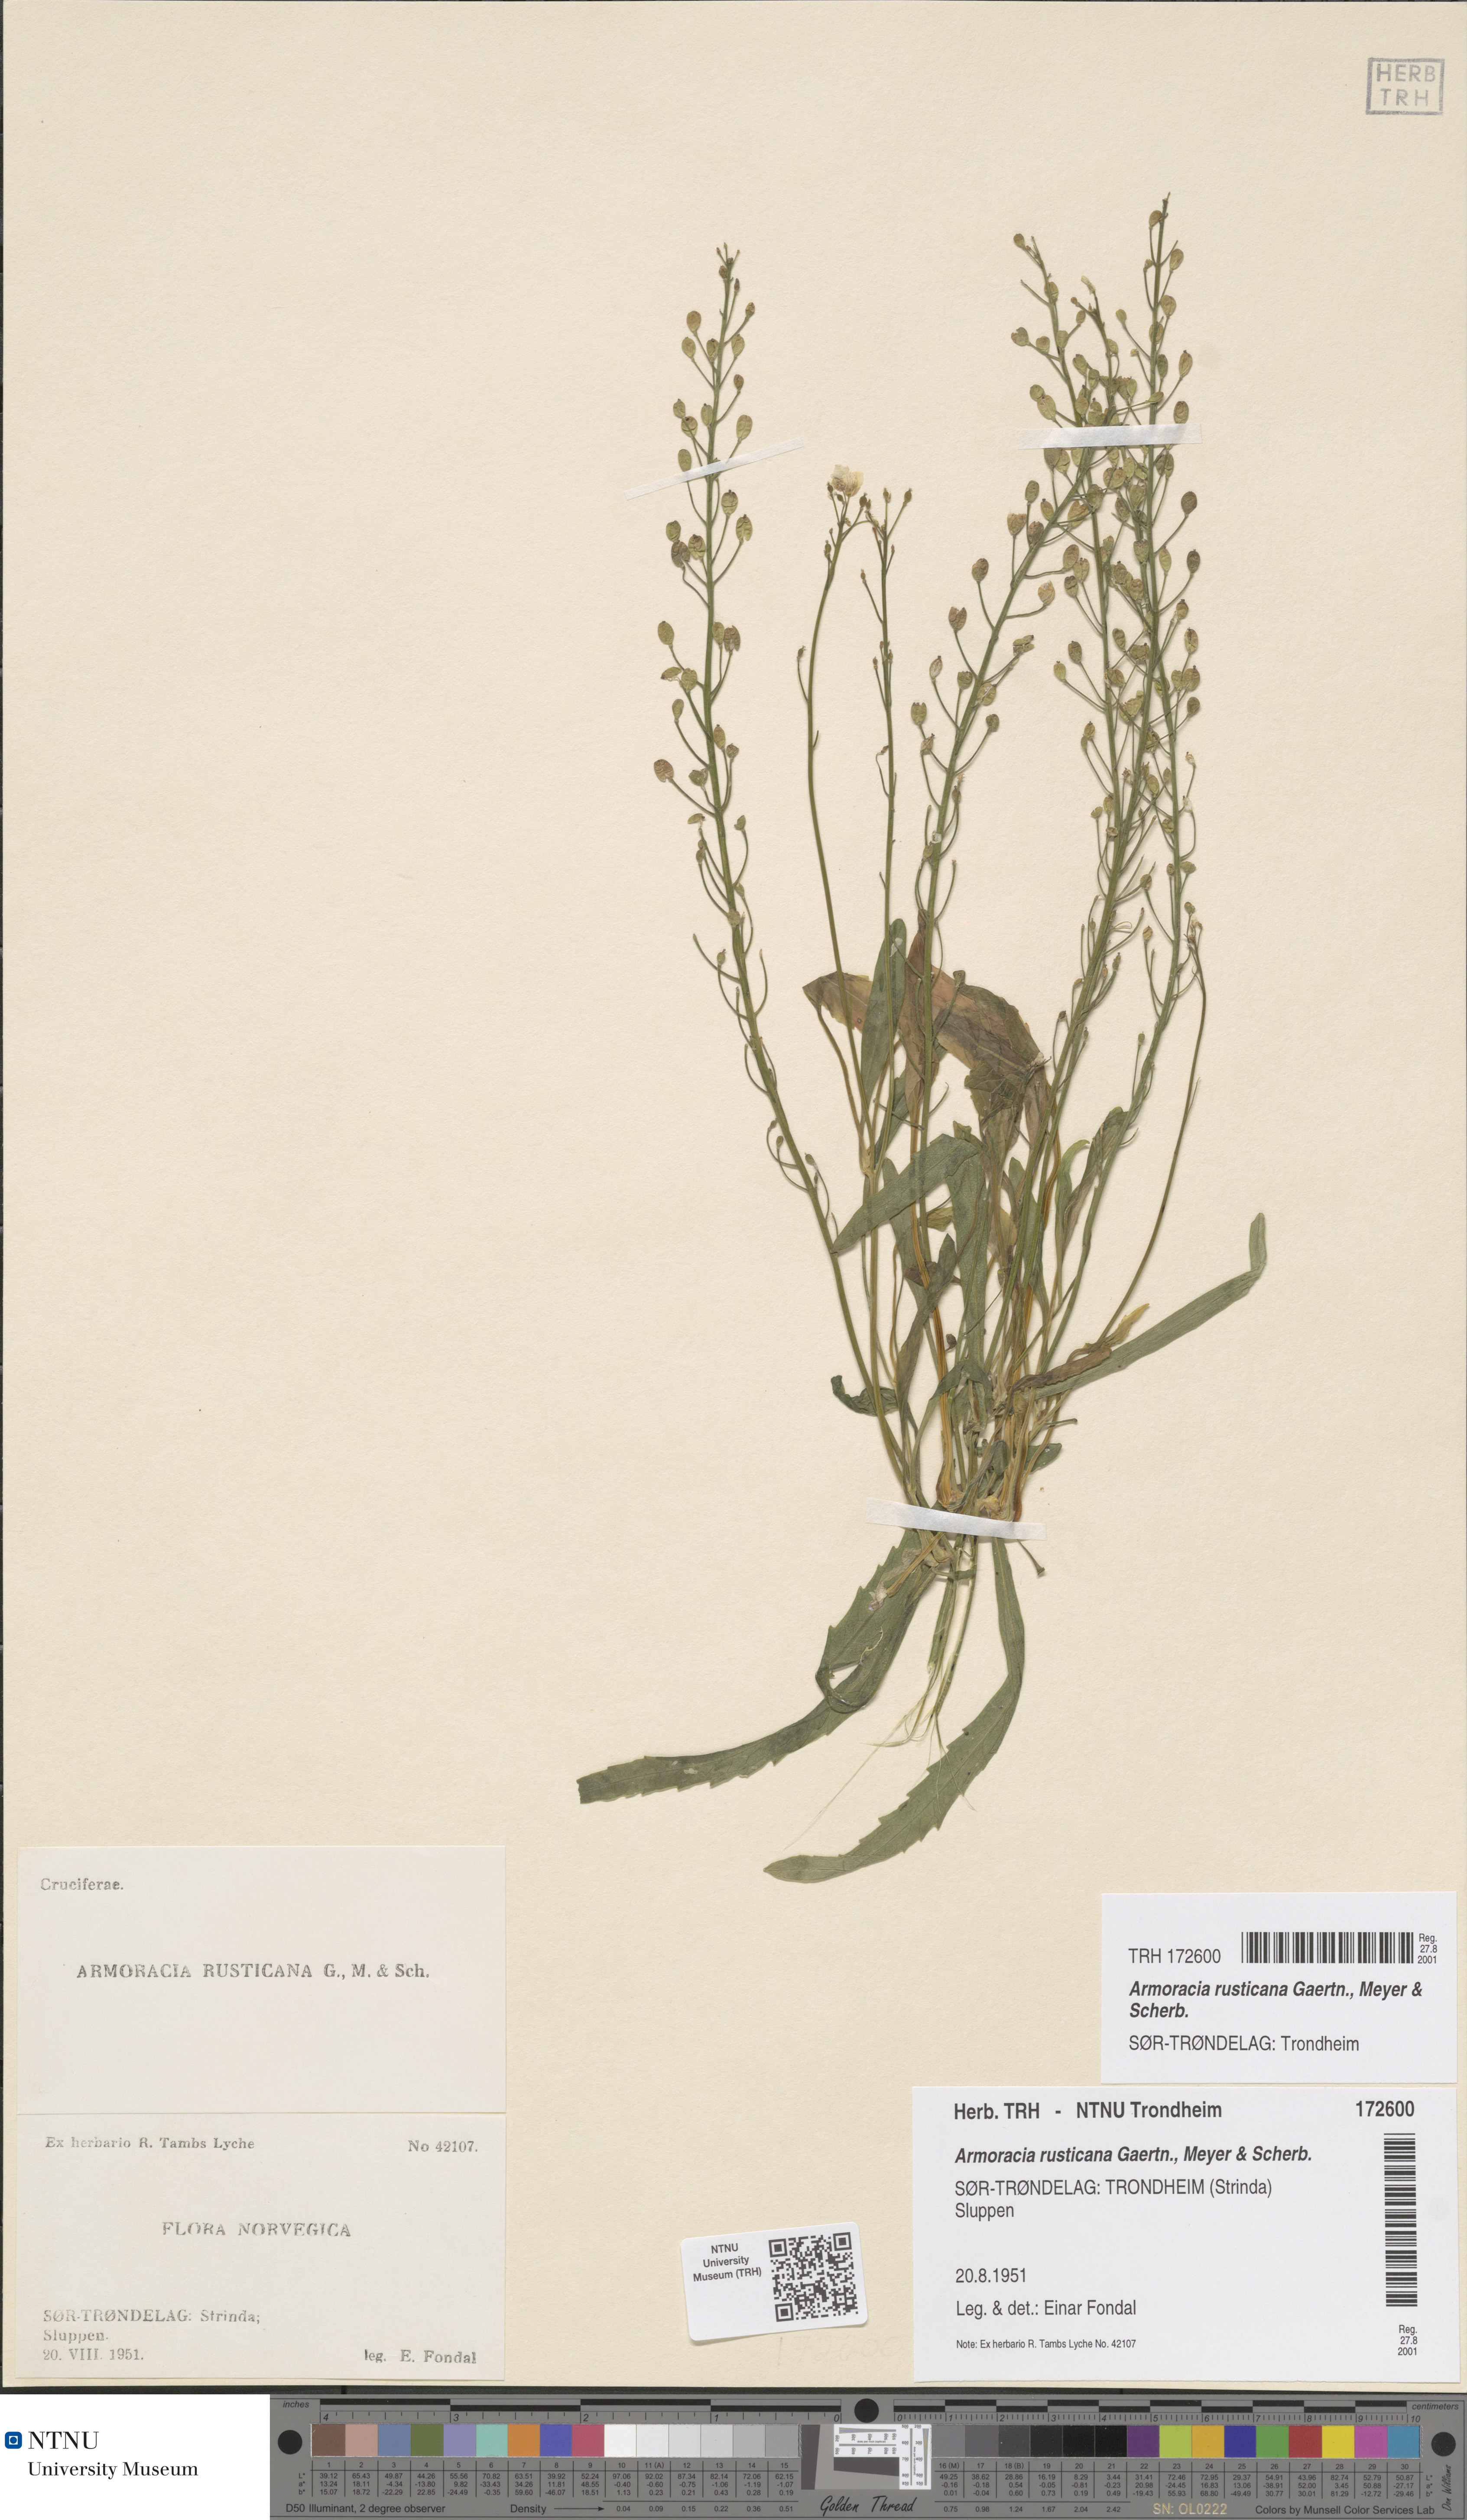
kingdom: Plantae
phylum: Tracheophyta
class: Magnoliopsida
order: Brassicales
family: Brassicaceae
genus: Armoracia
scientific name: Armoracia rusticana
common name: Horseradish
